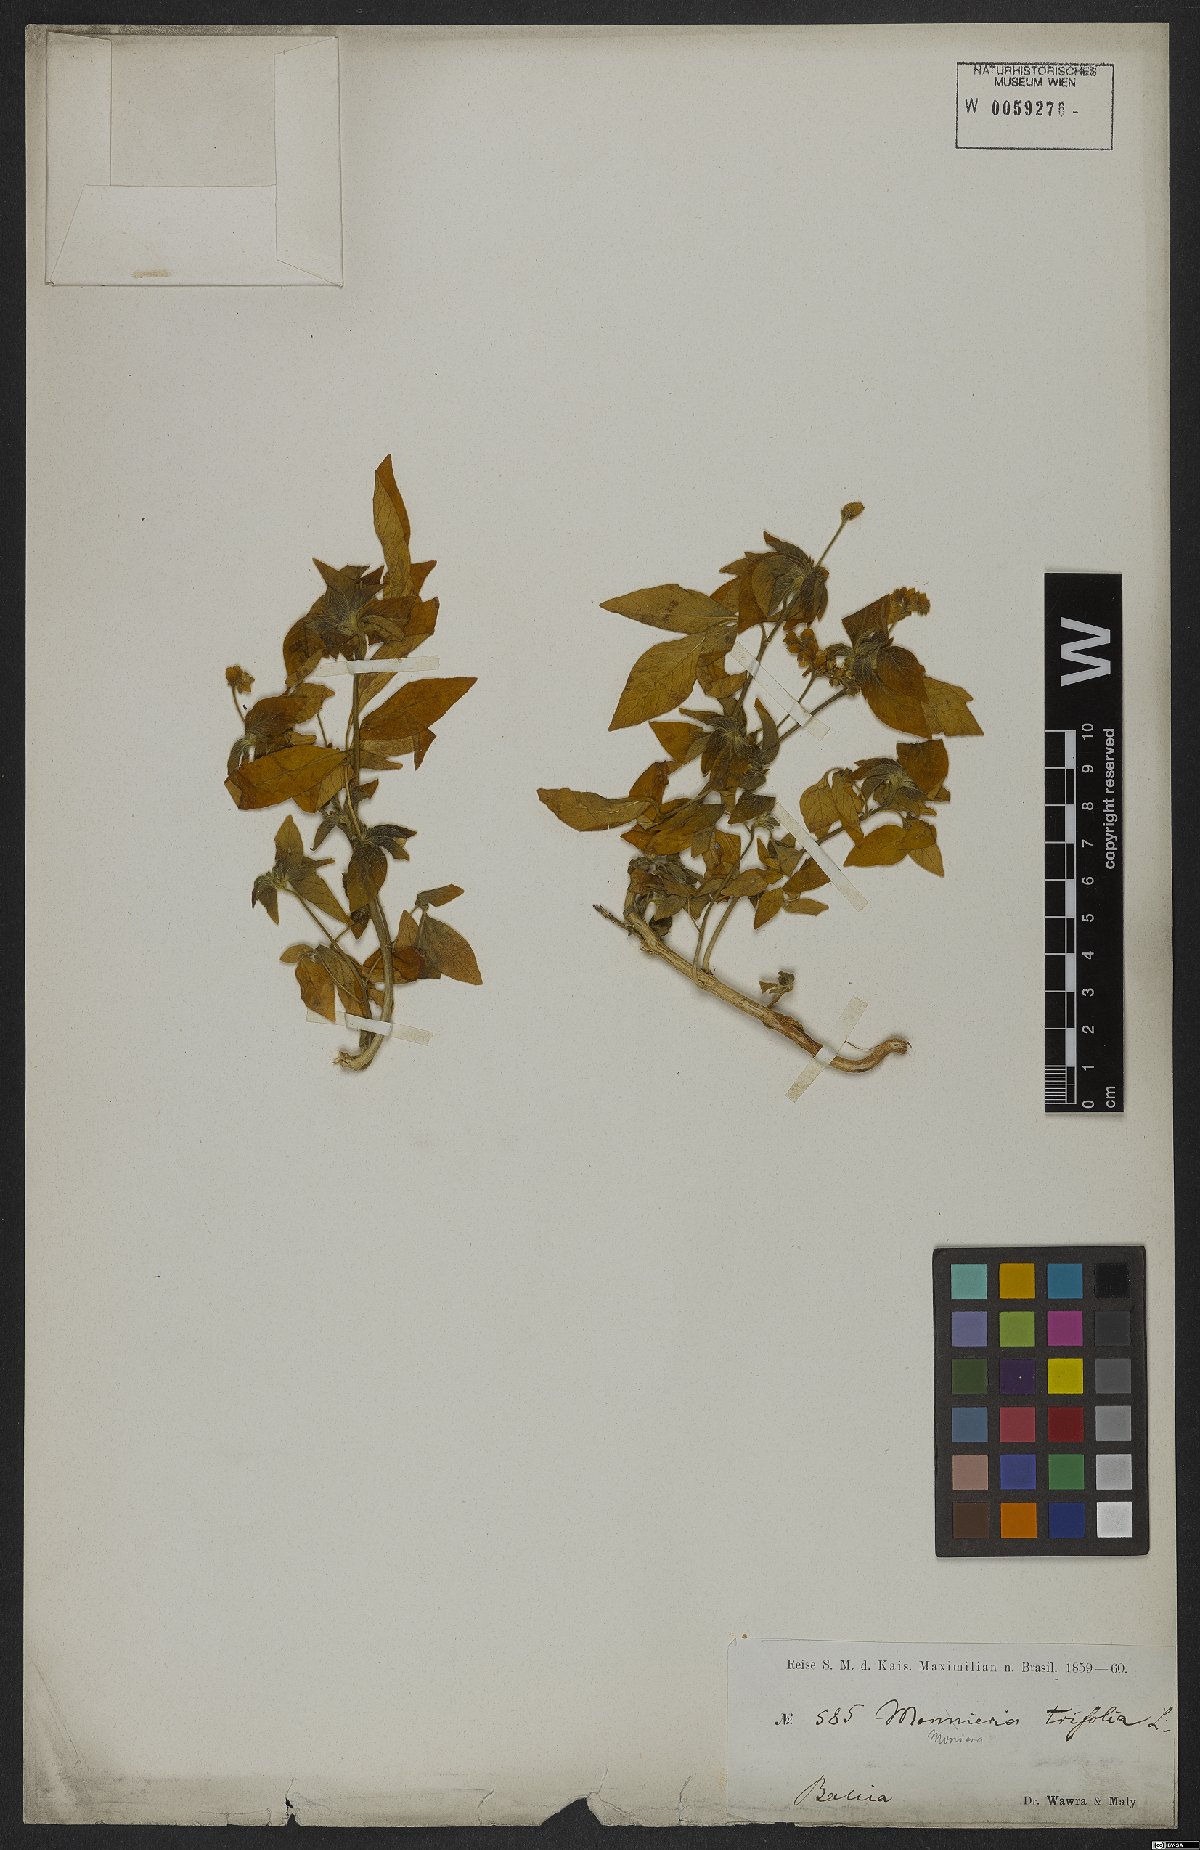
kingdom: Plantae
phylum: Tracheophyta
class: Magnoliopsida
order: Sapindales
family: Rutaceae
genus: Ertela
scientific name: Ertela trifolia
